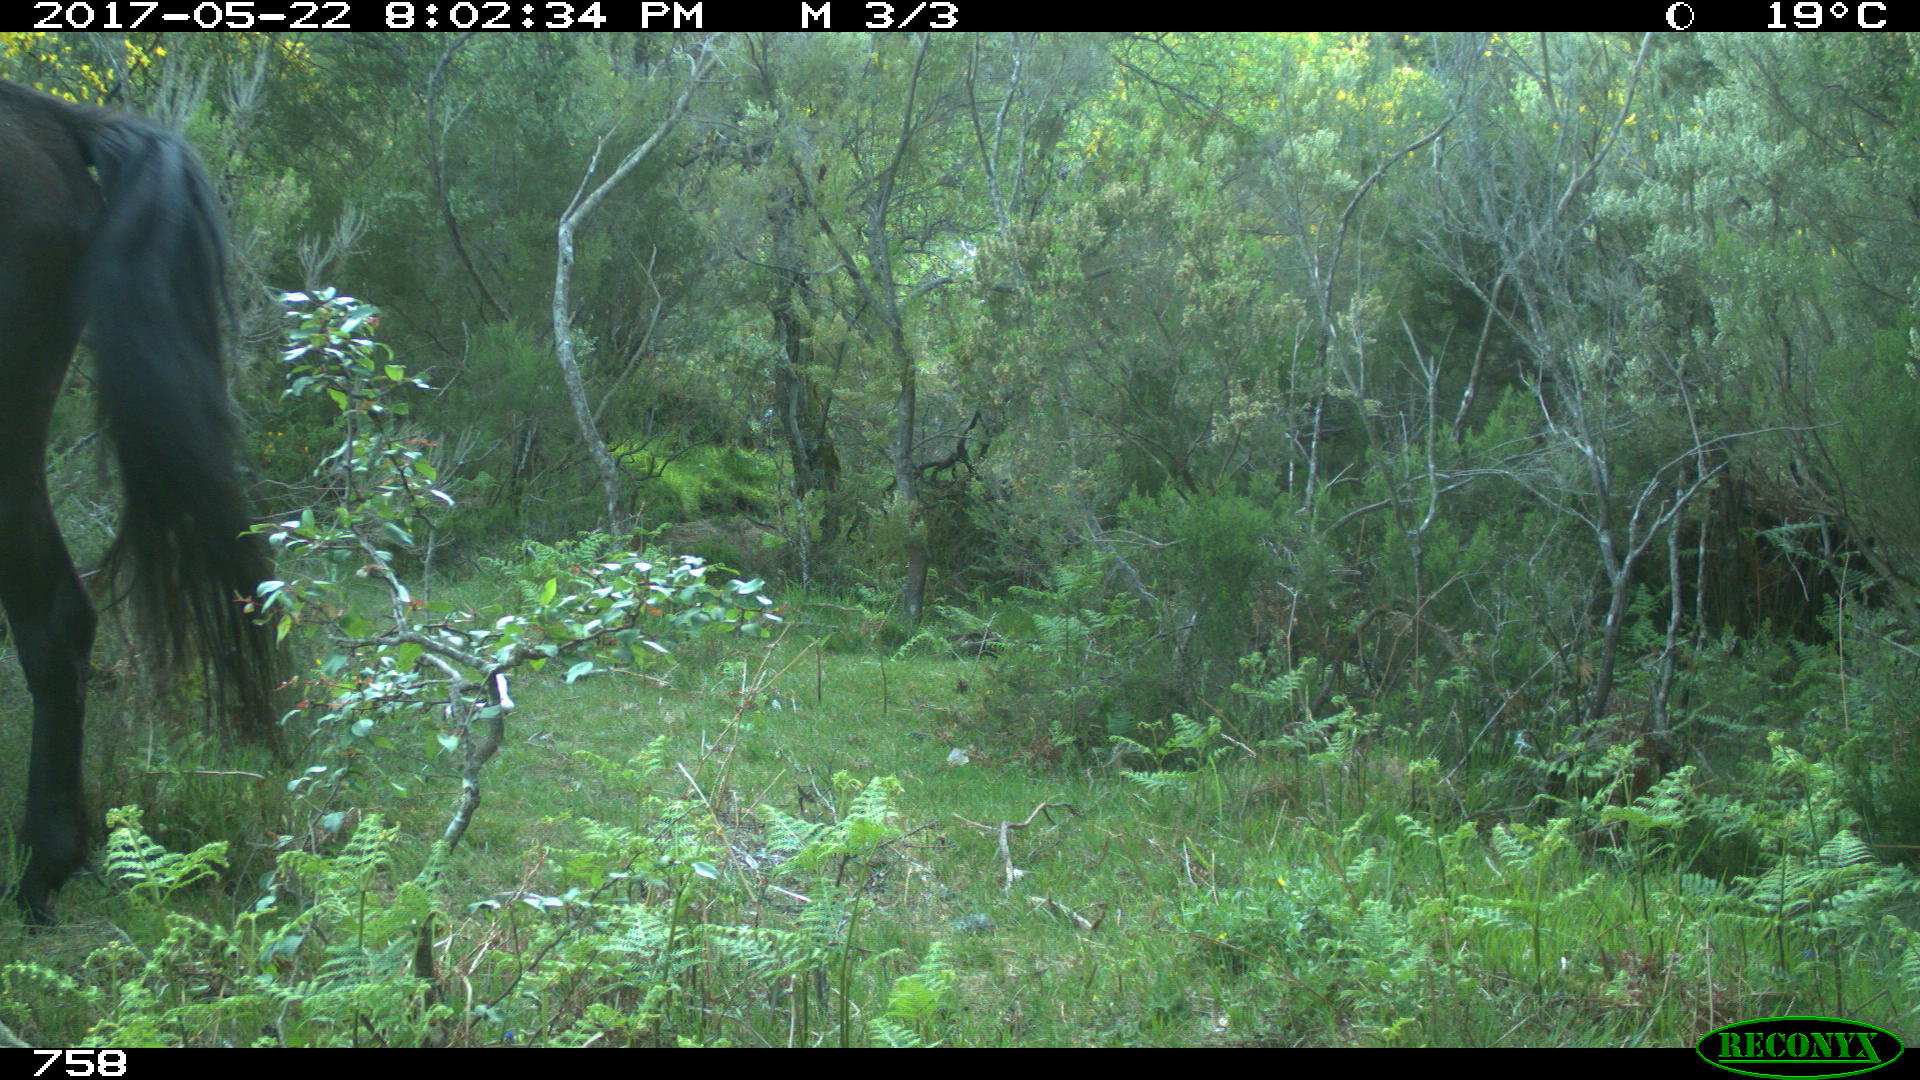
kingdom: Animalia
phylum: Chordata
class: Mammalia
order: Perissodactyla
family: Equidae
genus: Equus
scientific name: Equus caballus
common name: Horse
